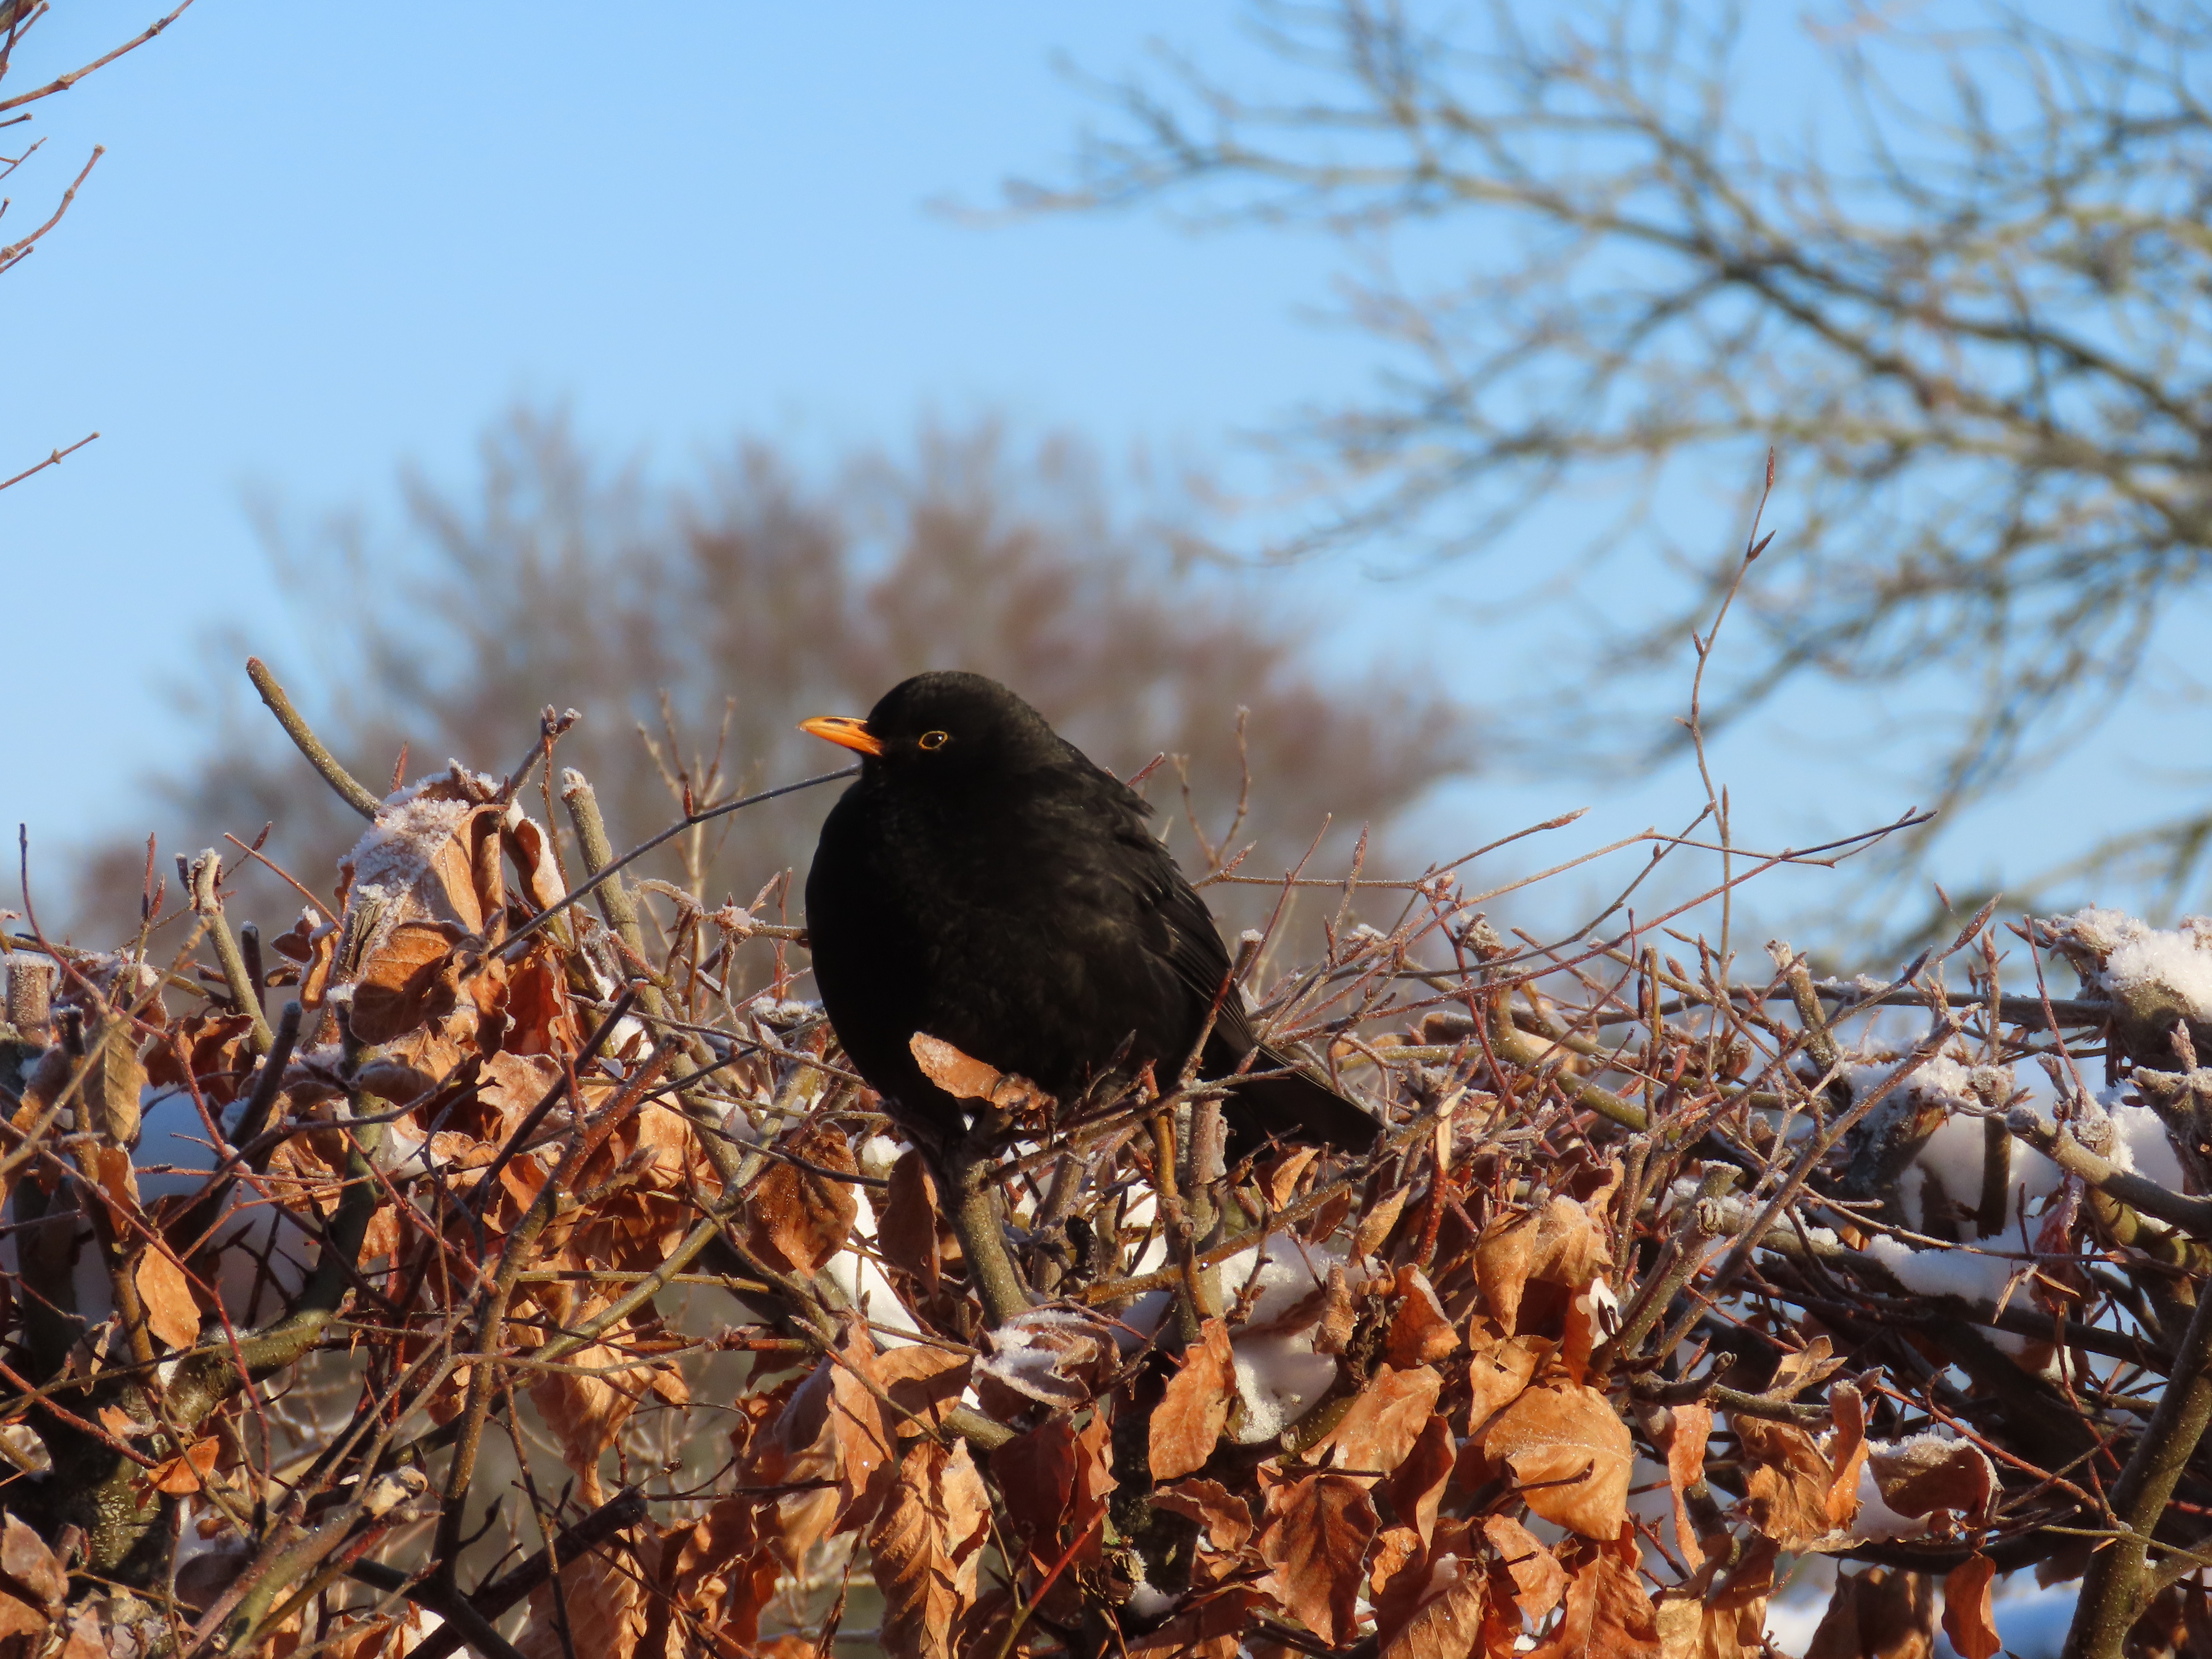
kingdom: Animalia
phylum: Chordata
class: Aves
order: Passeriformes
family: Turdidae
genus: Turdus
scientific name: Turdus merula
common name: Solsort
